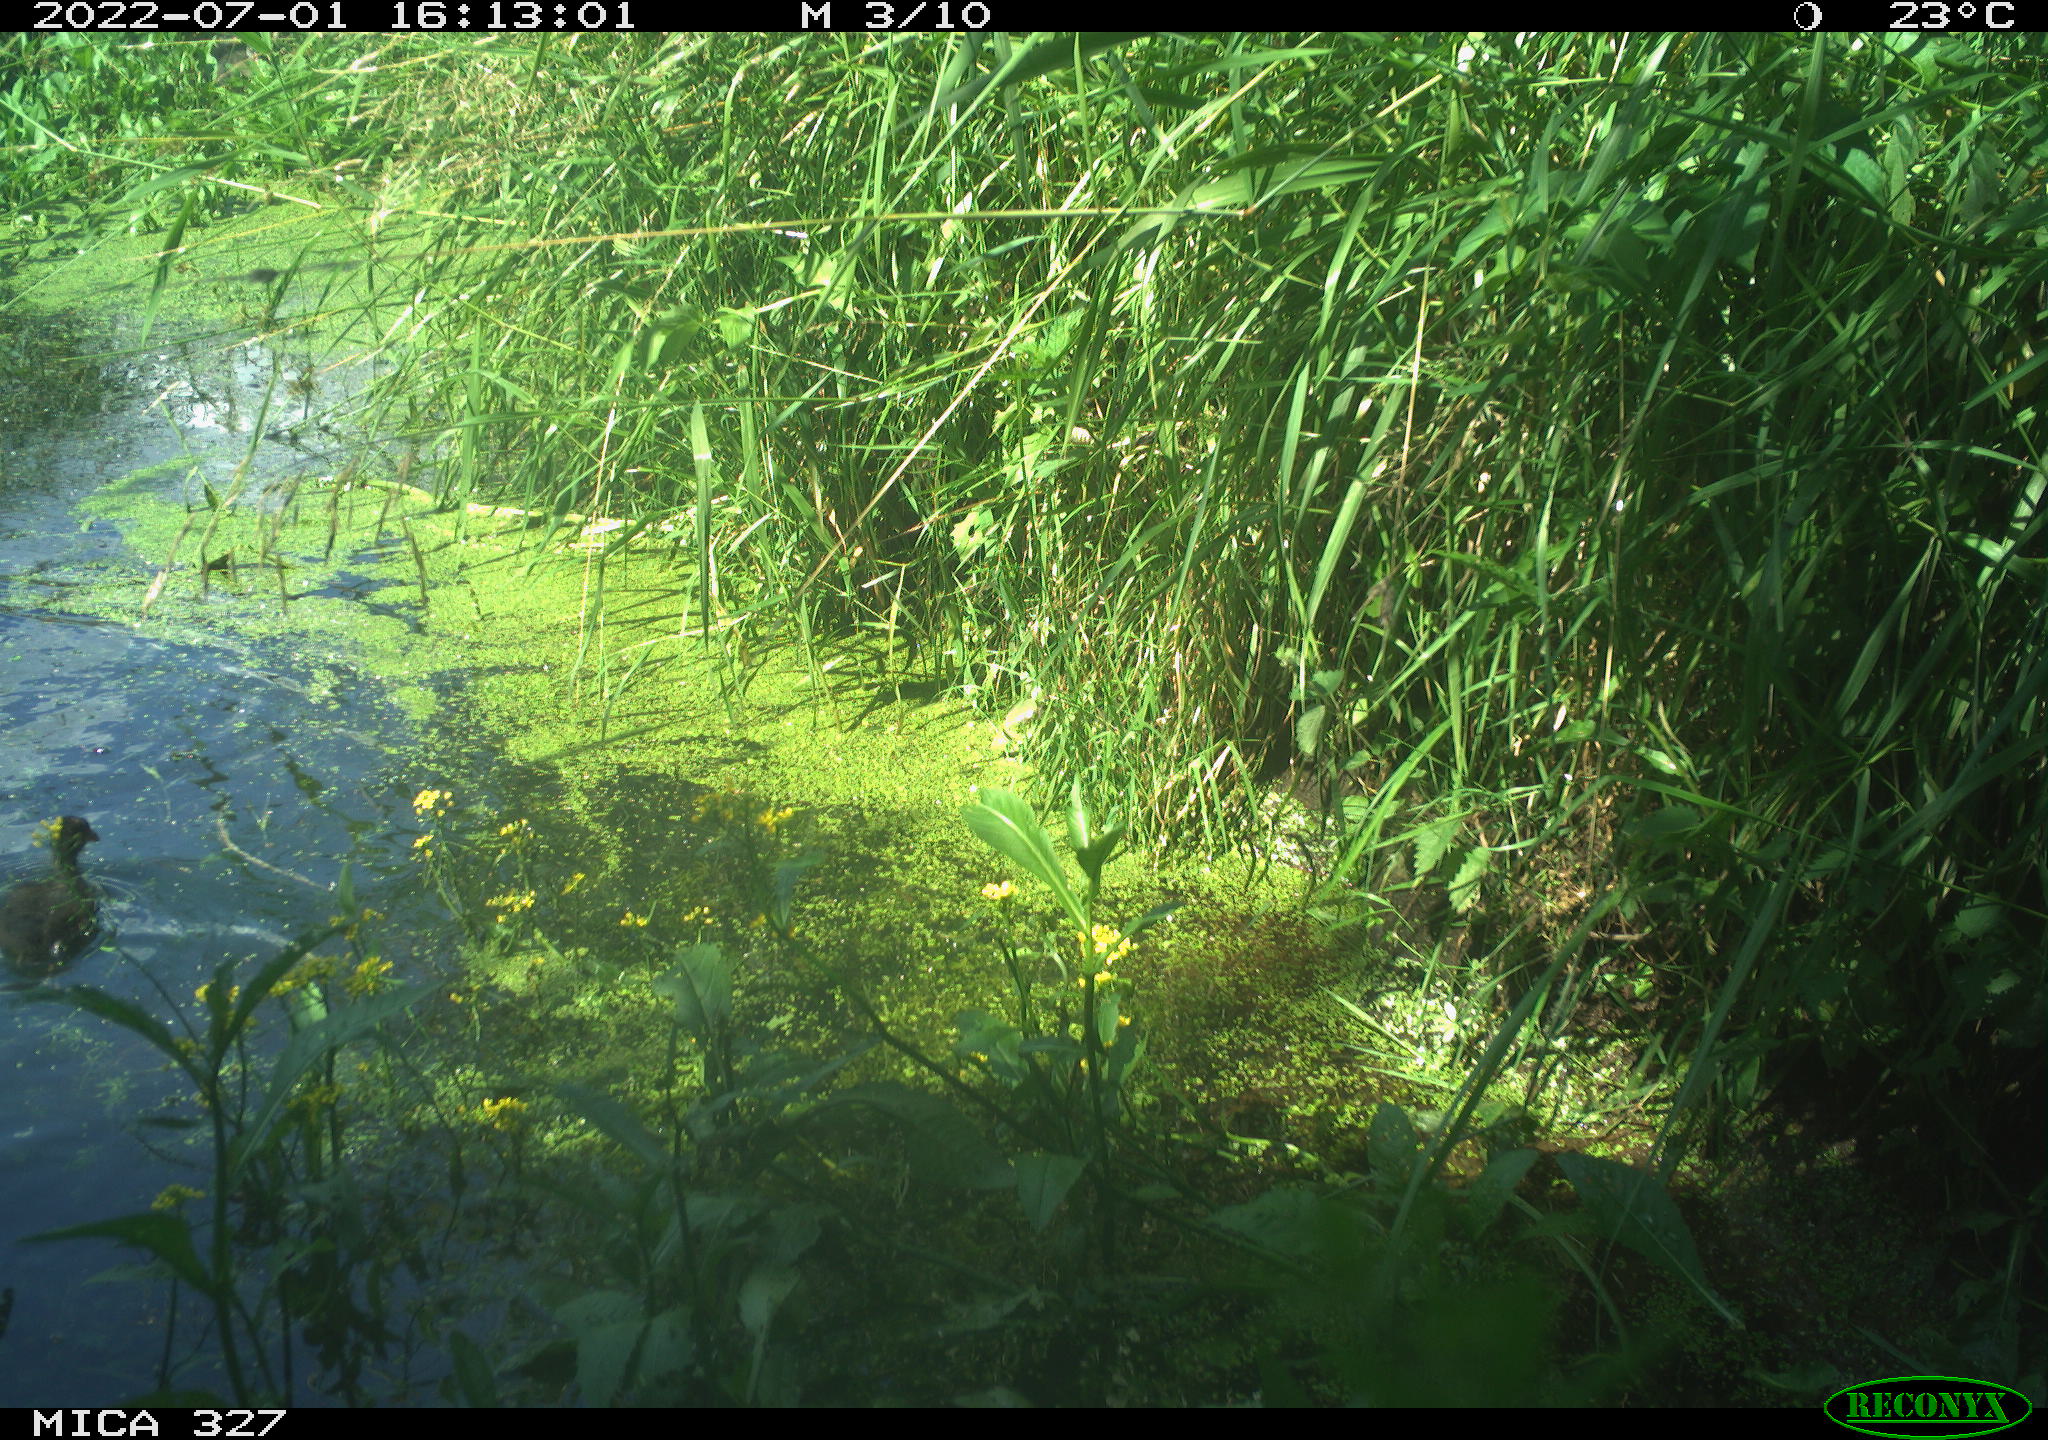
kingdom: Animalia
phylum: Chordata
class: Aves
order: Gruiformes
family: Rallidae
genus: Gallinula
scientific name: Gallinula chloropus
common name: Common moorhen
